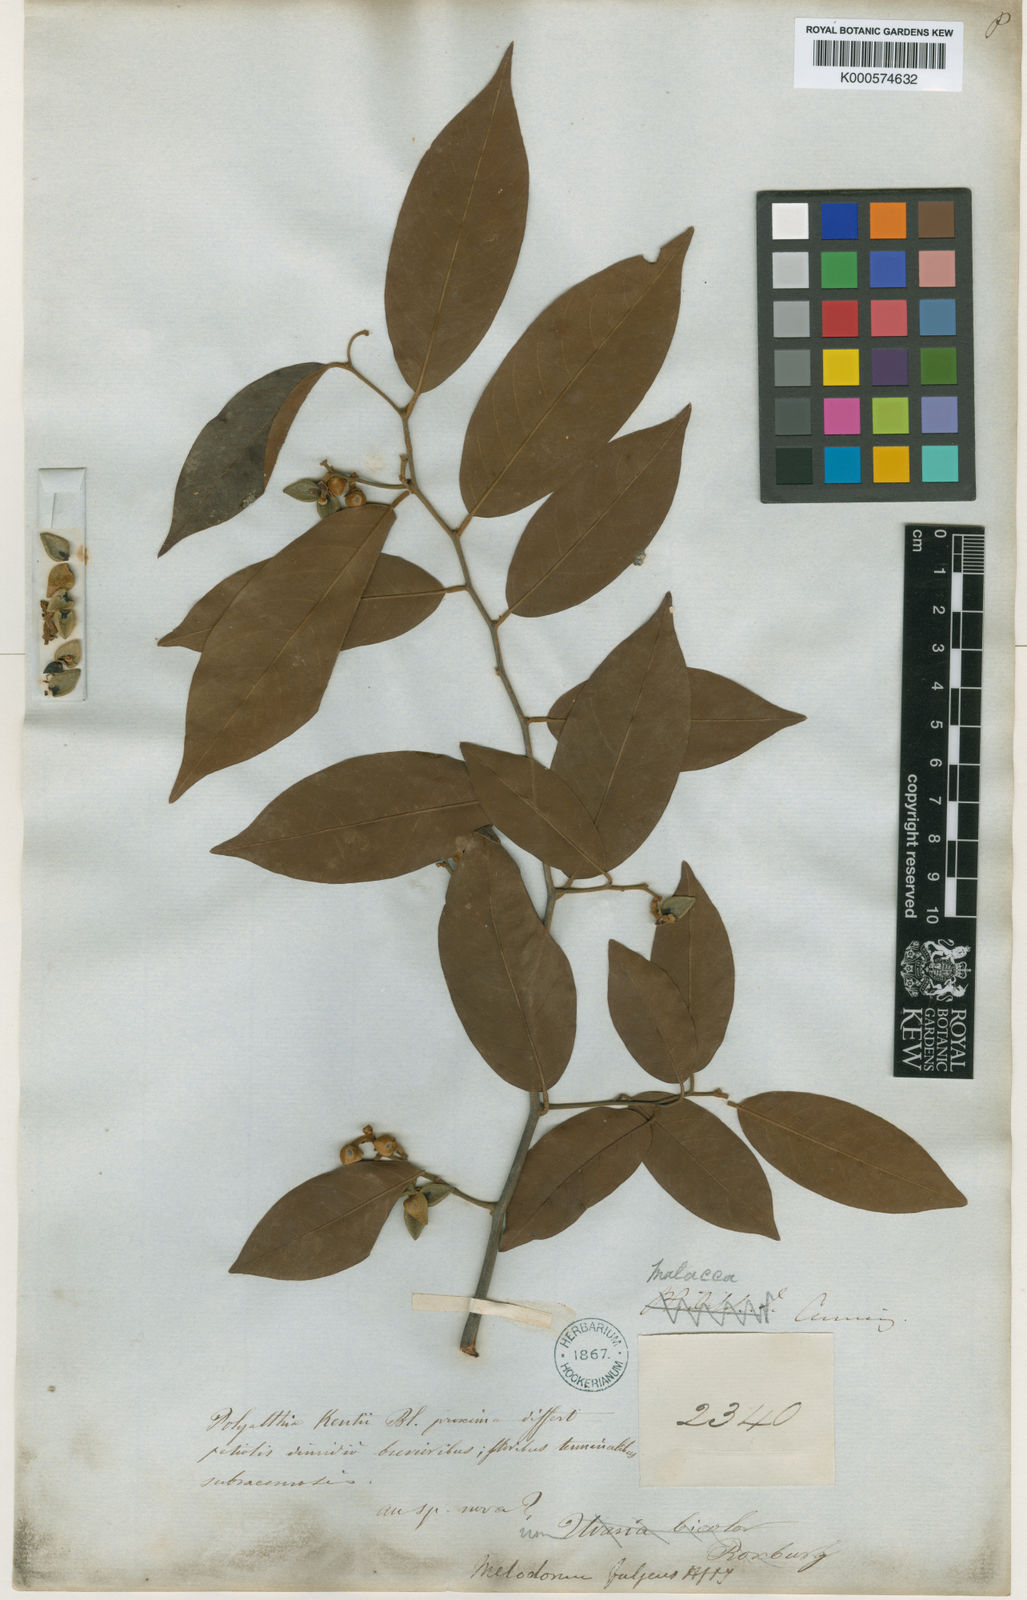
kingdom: Plantae
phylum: Tracheophyta
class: Magnoliopsida
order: Magnoliales
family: Annonaceae
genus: Fissistigma
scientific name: Fissistigma fulgens
